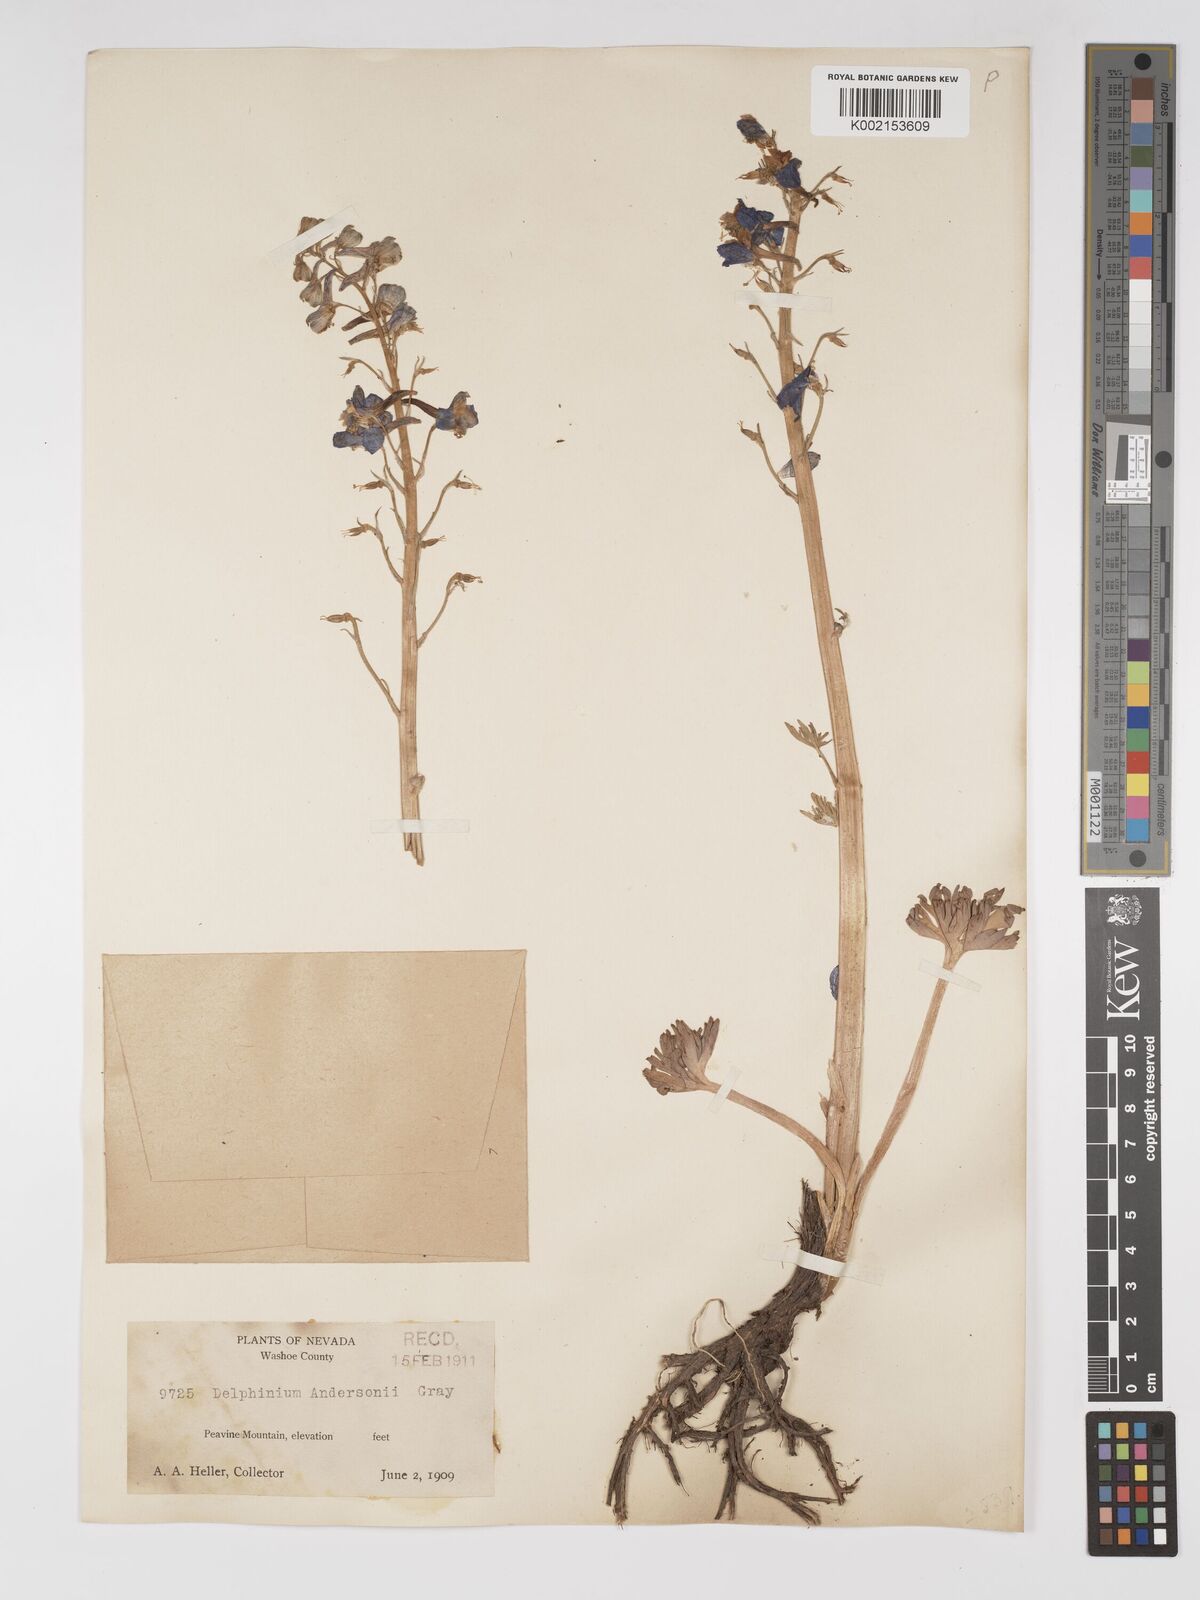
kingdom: Plantae
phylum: Tracheophyta
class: Magnoliopsida
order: Ranunculales
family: Ranunculaceae
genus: Delphinium
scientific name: Delphinium andersonii
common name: Anderson's larkspur
